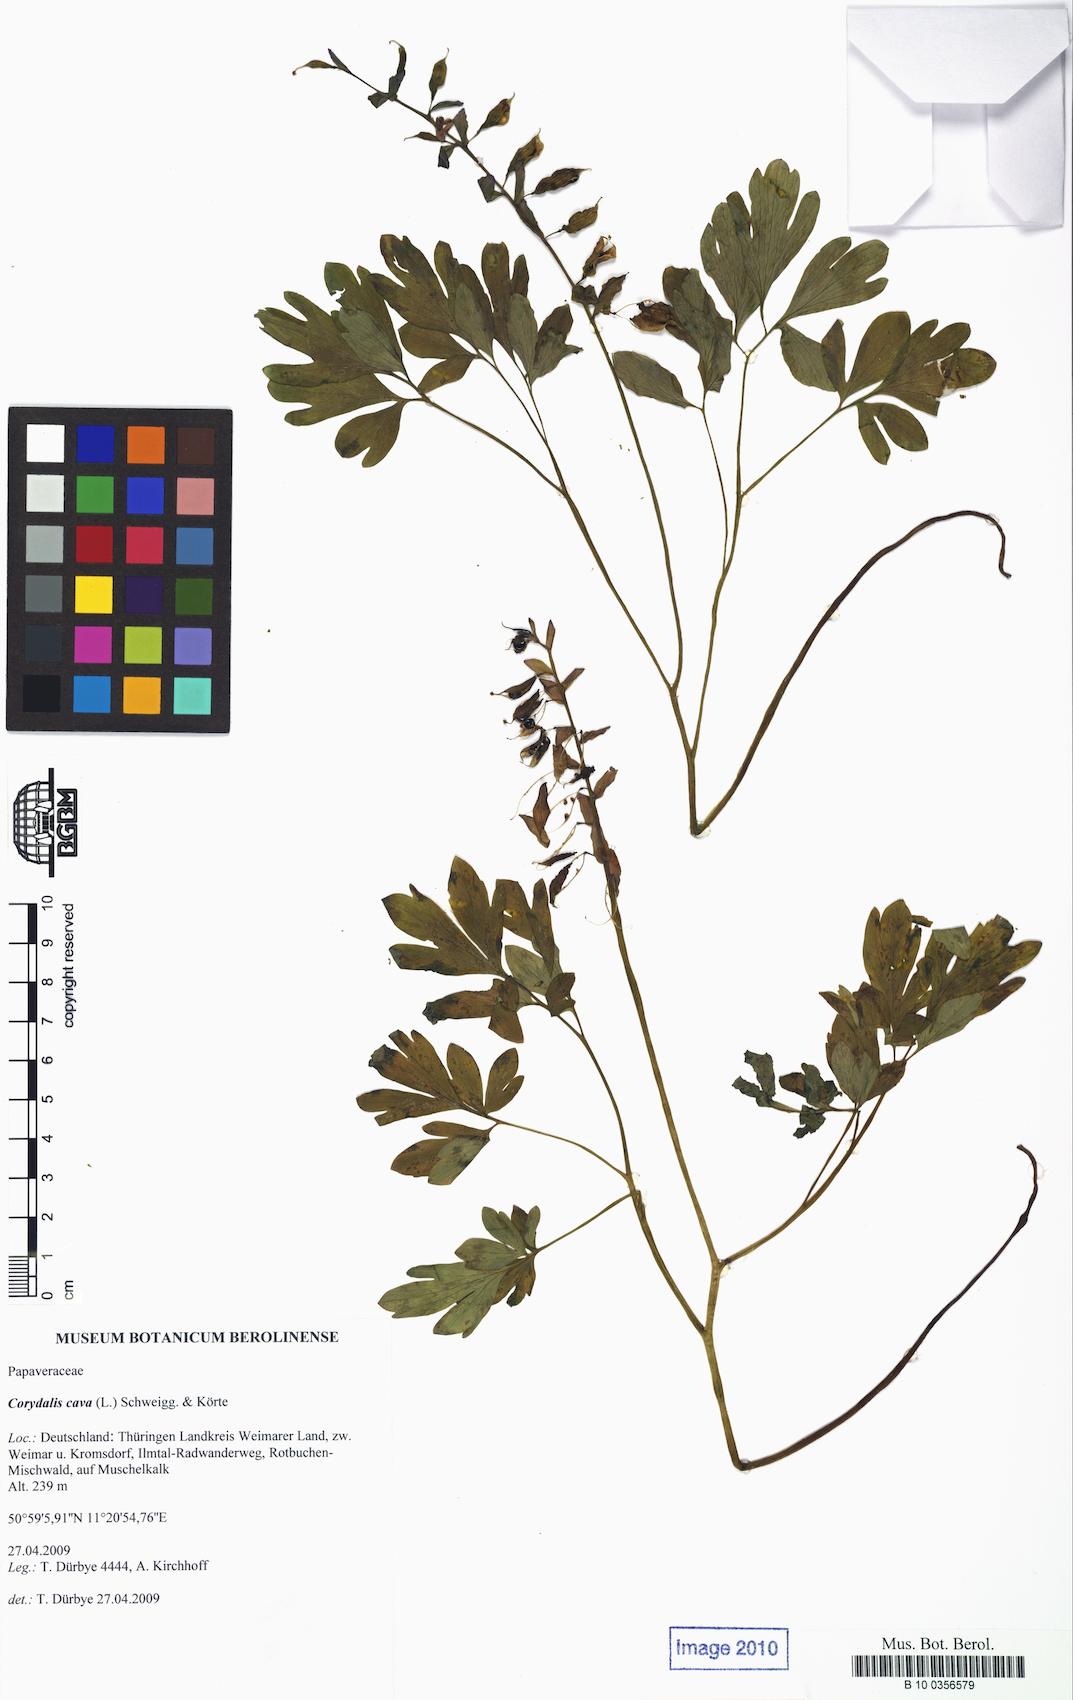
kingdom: Plantae
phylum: Tracheophyta
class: Magnoliopsida
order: Ranunculales
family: Papaveraceae
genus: Corydalis
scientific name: Corydalis cava
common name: Hollowroot
